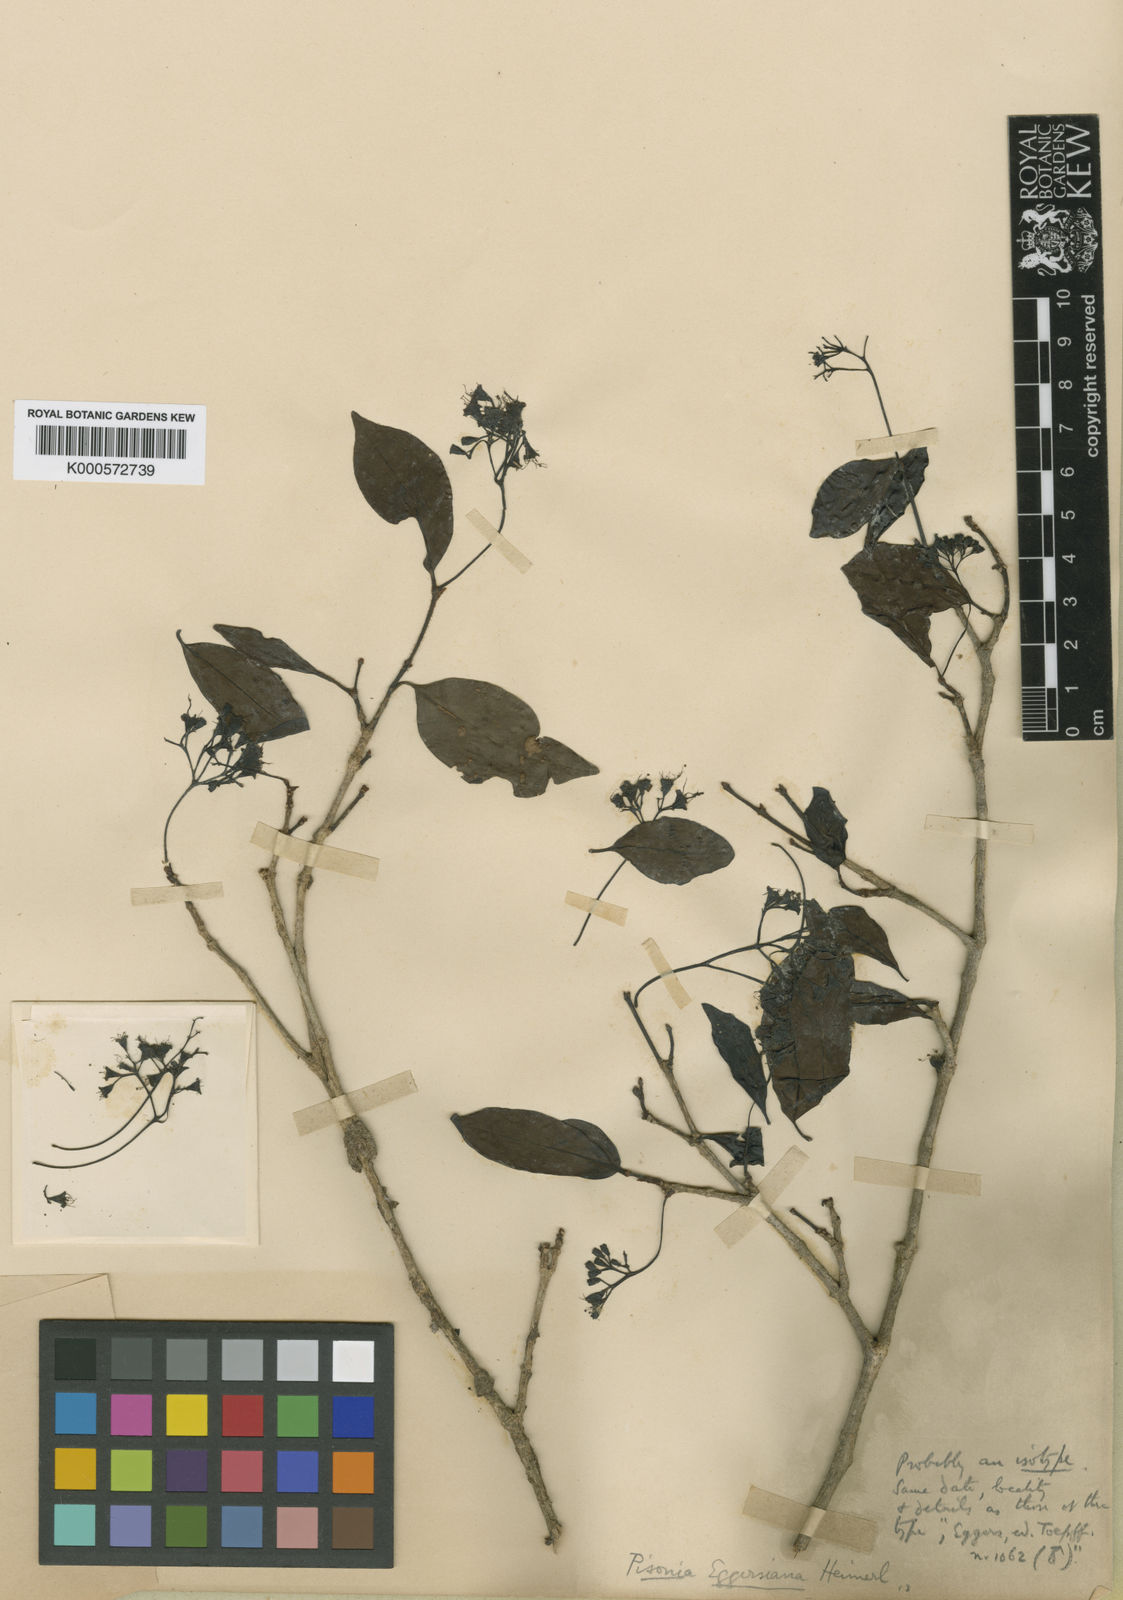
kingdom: Plantae
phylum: Tracheophyta
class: Magnoliopsida
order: Caryophyllales
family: Nyctaginaceae
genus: Guapira
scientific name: Guapira eggersiana
